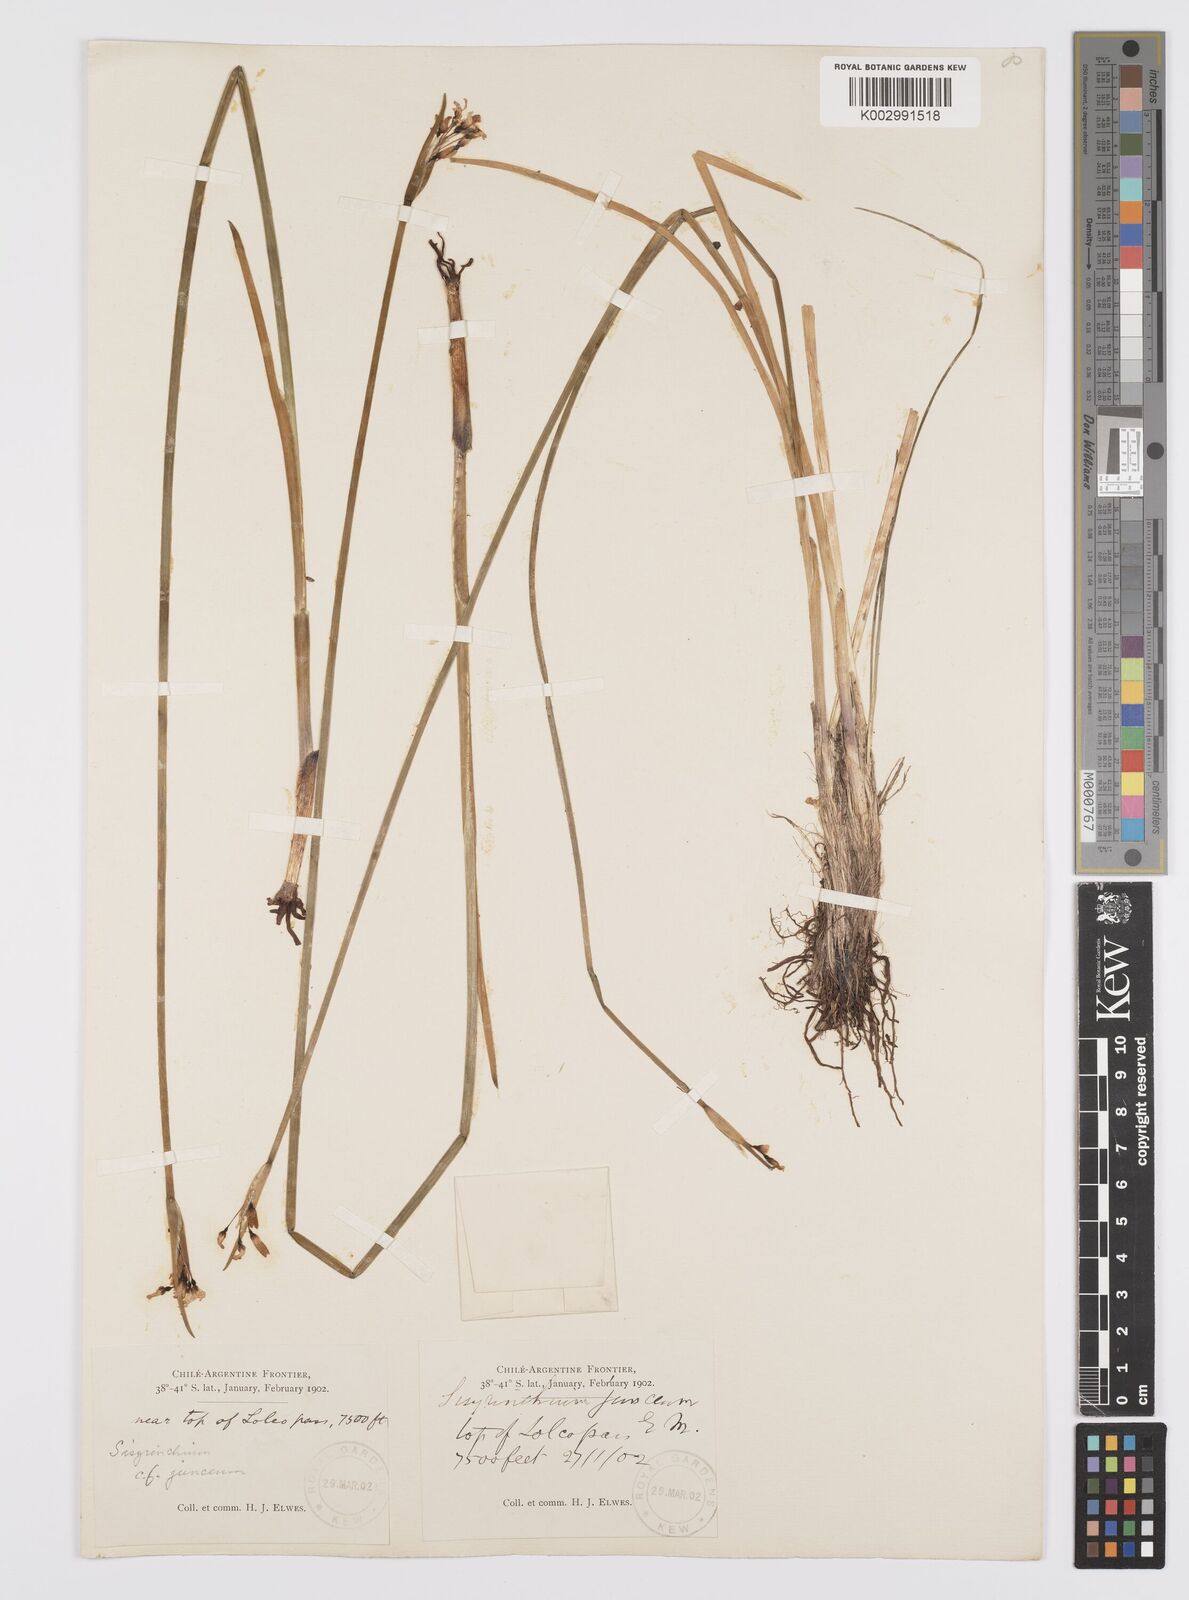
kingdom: Plantae
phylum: Tracheophyta
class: Liliopsida
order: Asparagales
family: Iridaceae
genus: Olsynium
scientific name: Olsynium junceum
